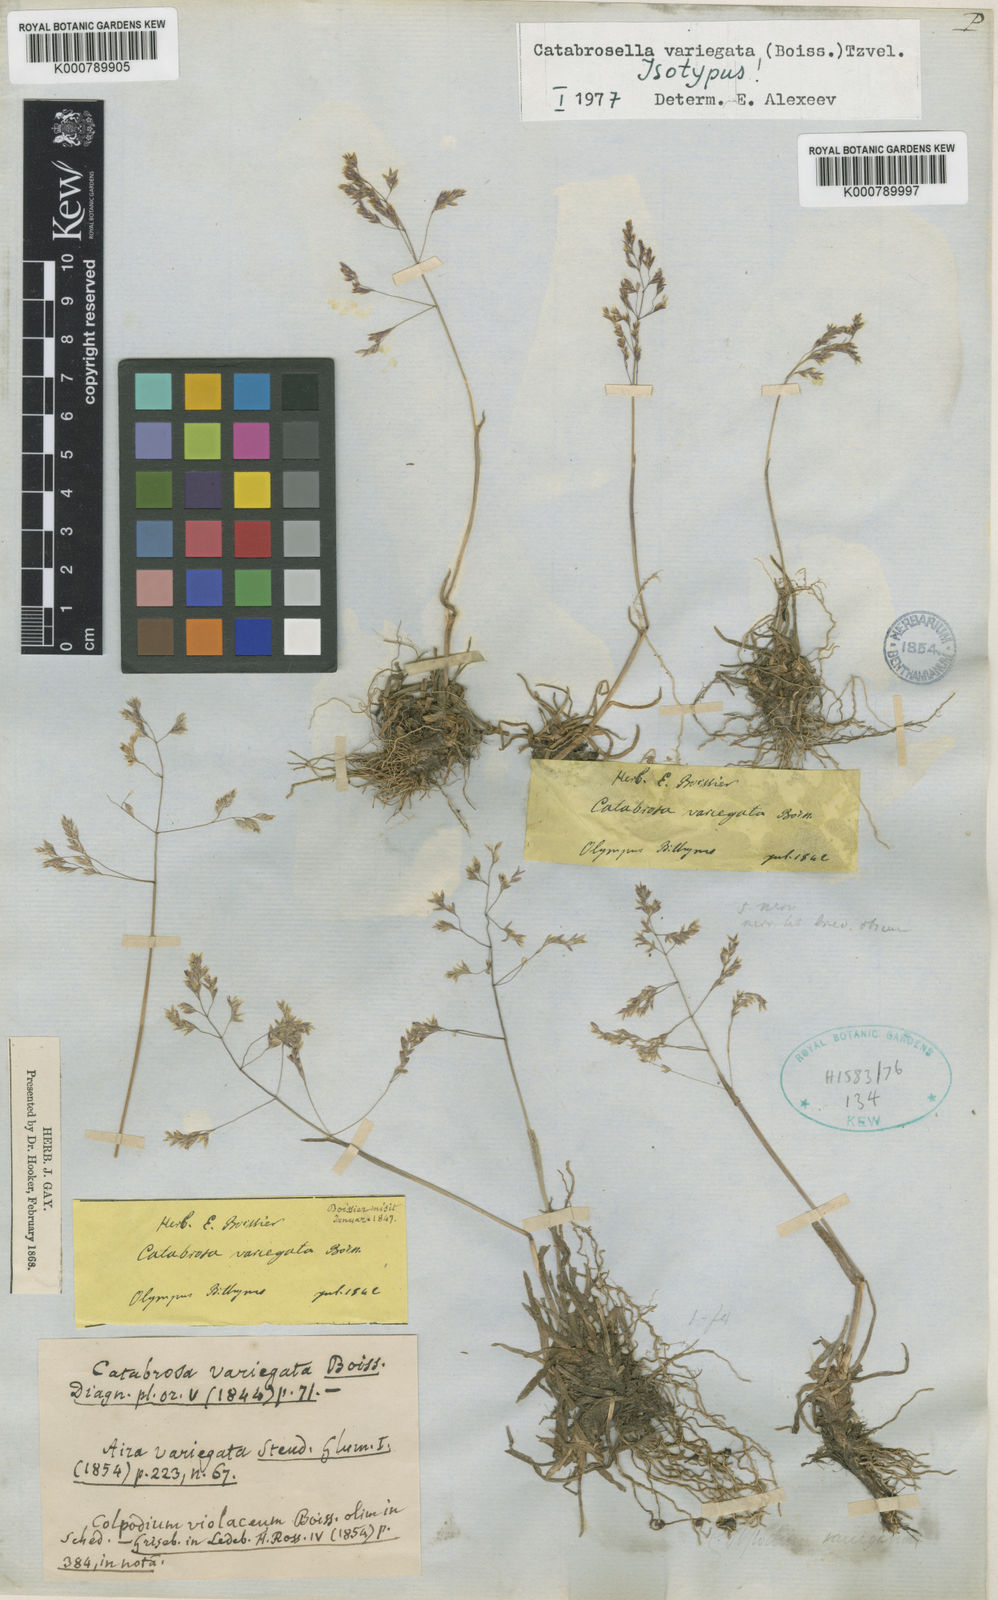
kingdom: Plantae
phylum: Tracheophyta
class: Liliopsida
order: Poales
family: Poaceae
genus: Catabrosella
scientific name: Catabrosella variegata
